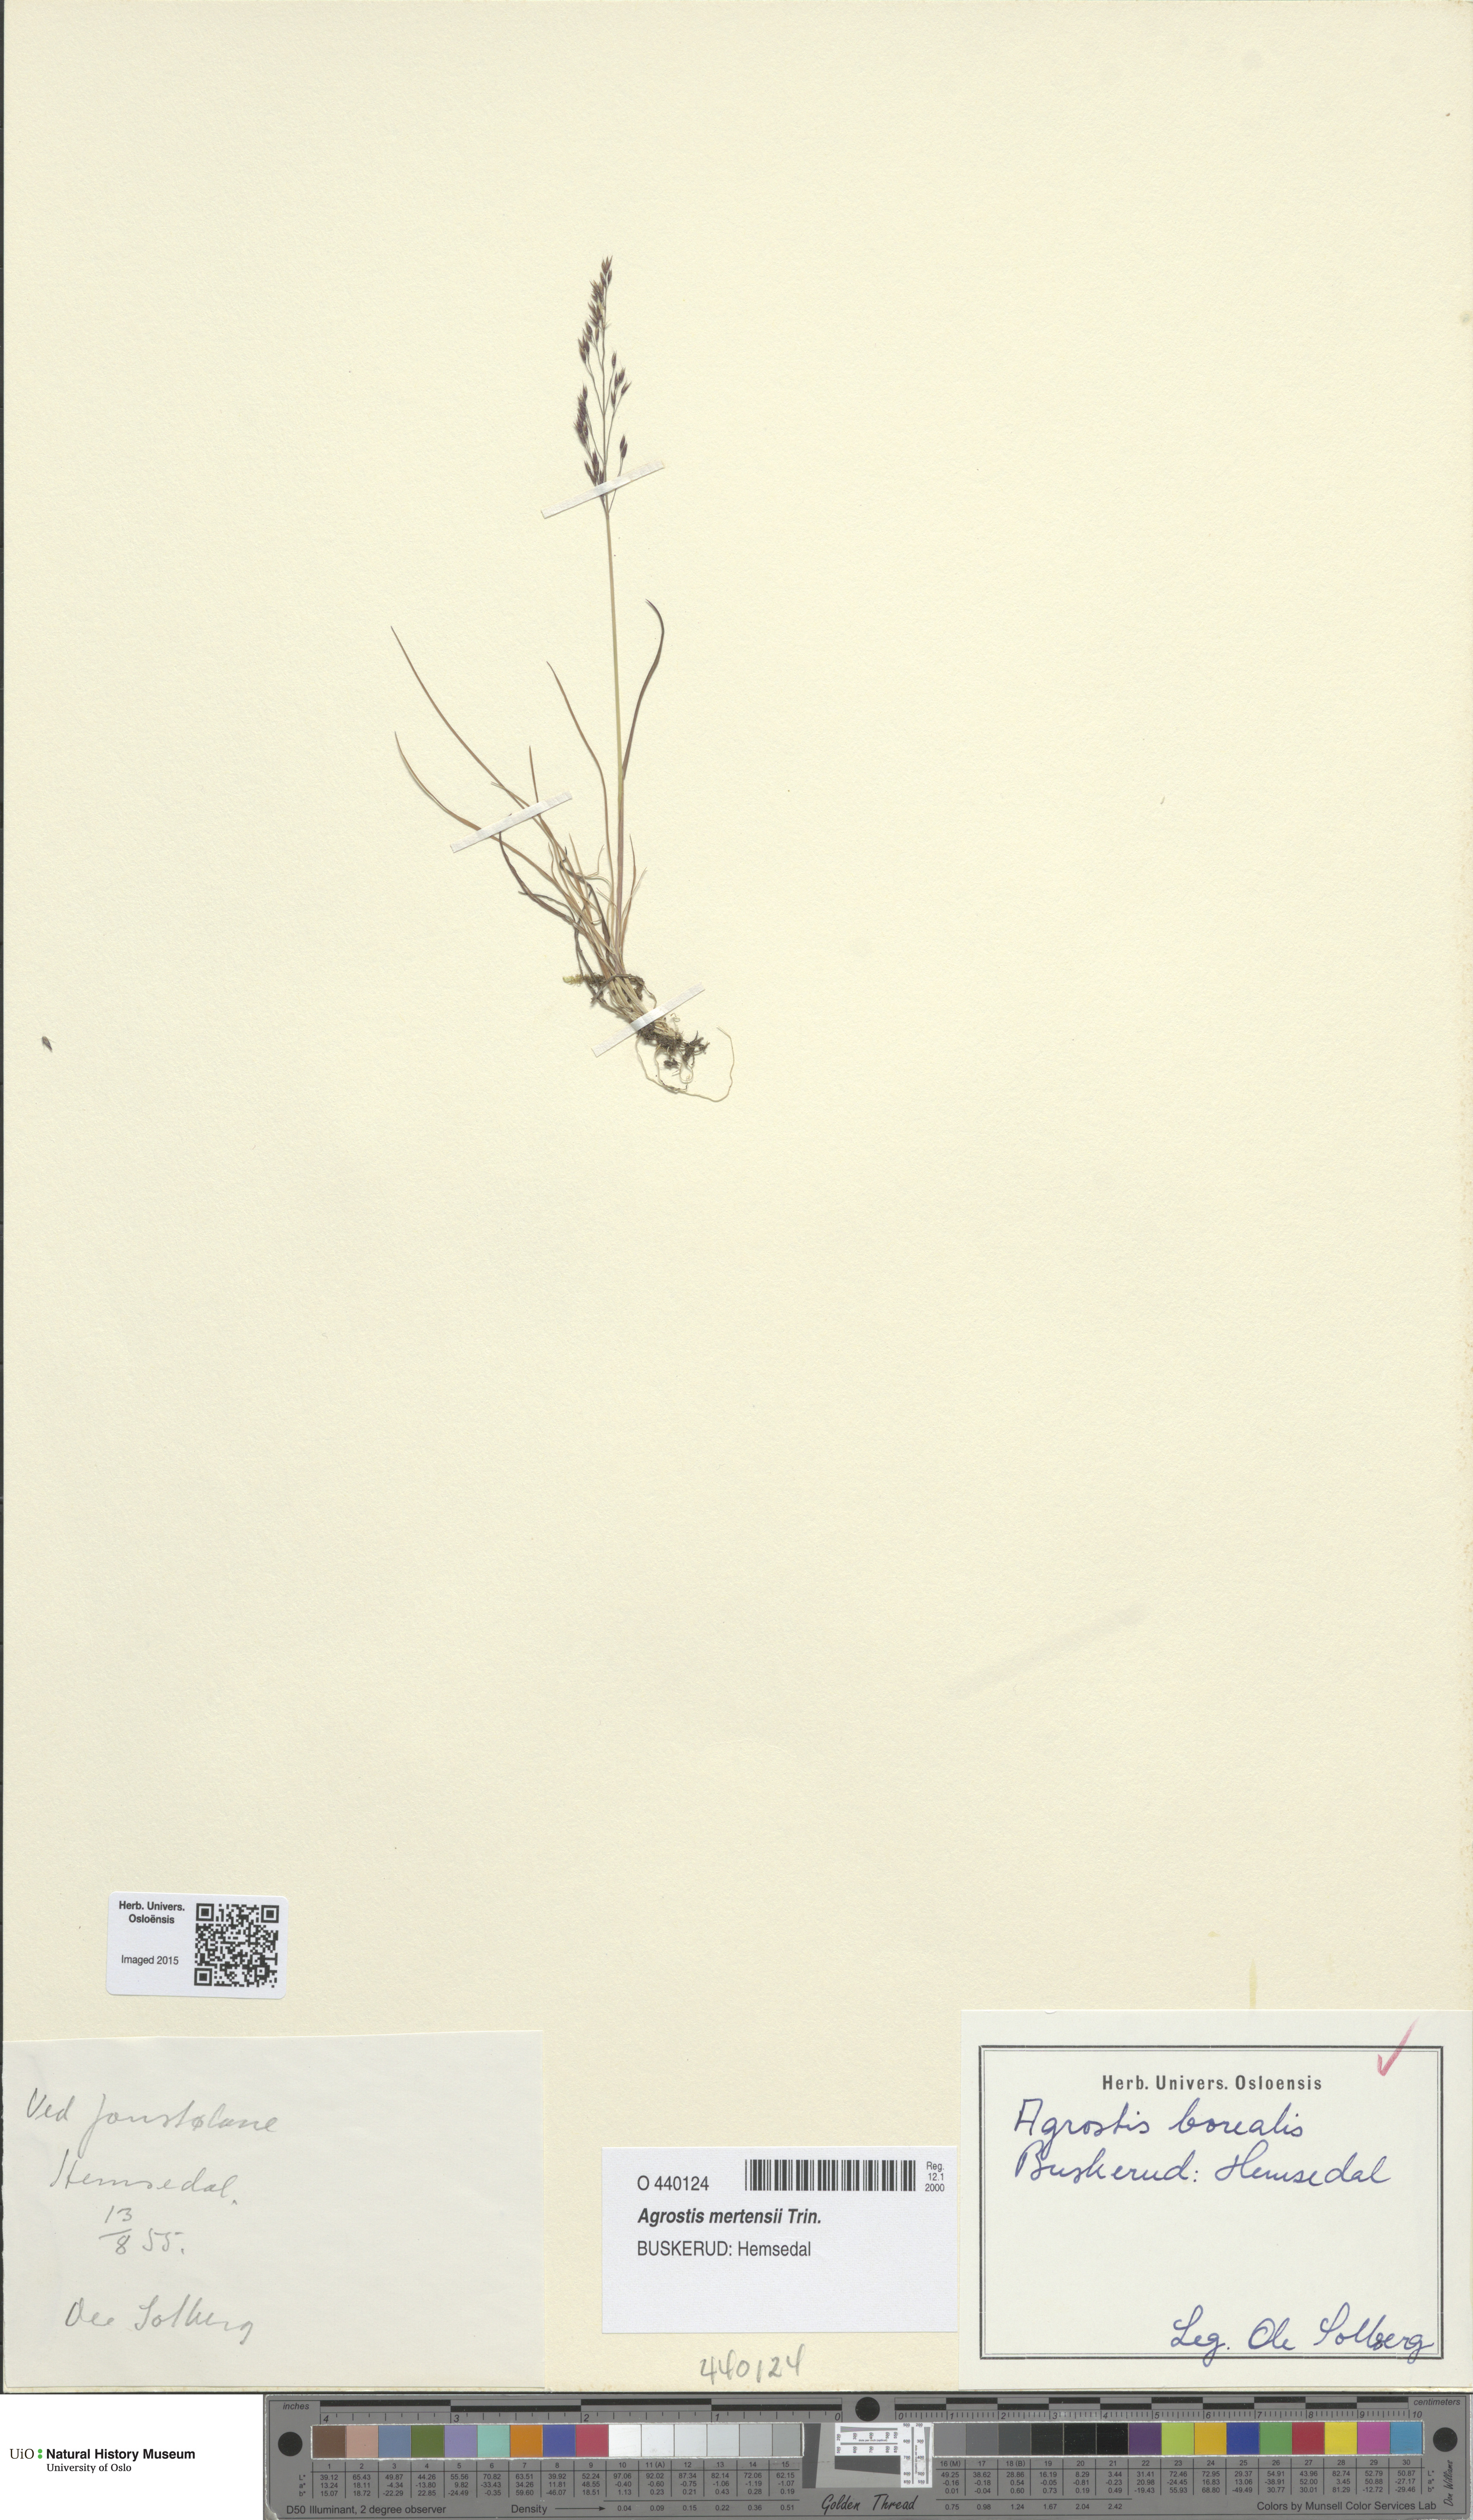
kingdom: Plantae
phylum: Tracheophyta
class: Liliopsida
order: Poales
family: Poaceae
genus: Agrostis
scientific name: Agrostis mertensii
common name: Northern bent
